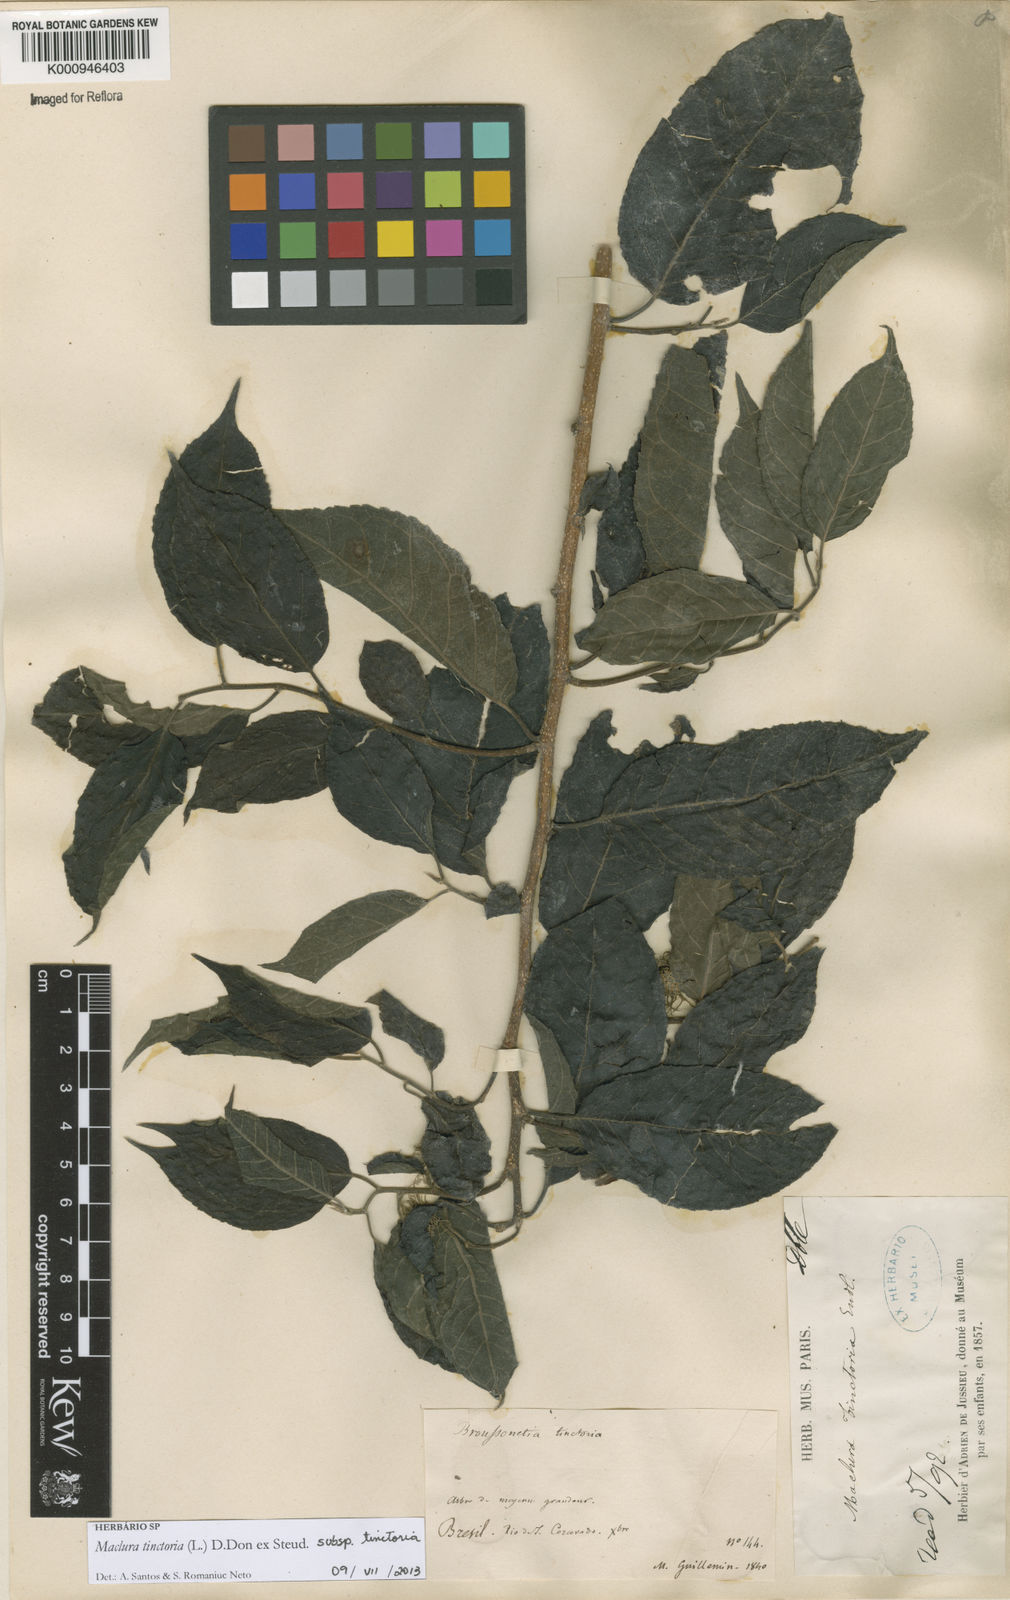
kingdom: Plantae
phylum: Tracheophyta
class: Magnoliopsida
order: Rosales
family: Moraceae
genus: Maclura
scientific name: Maclura
